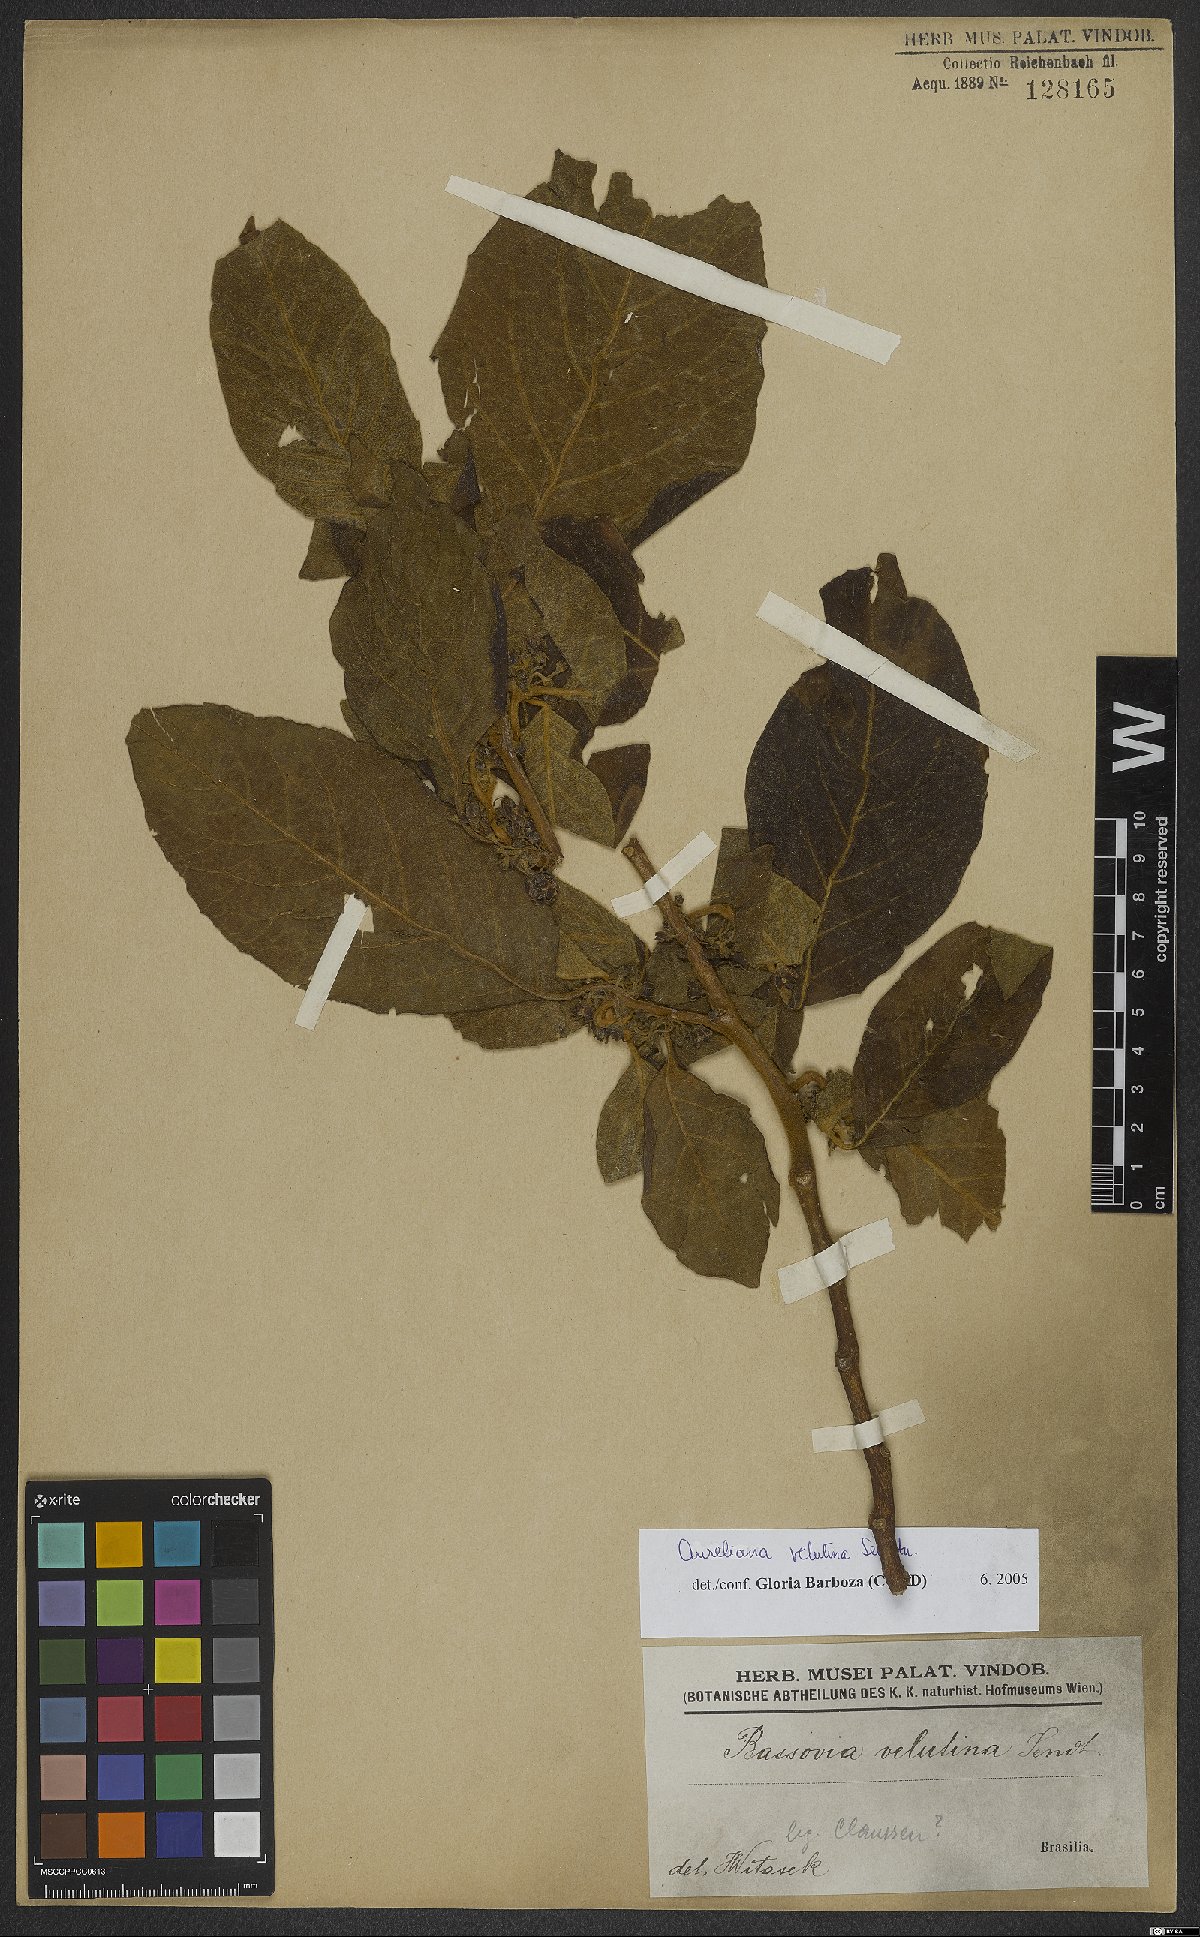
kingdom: Plantae
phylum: Tracheophyta
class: Magnoliopsida
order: Solanales
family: Solanaceae
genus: Athenaea
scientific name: Athenaea velutina
